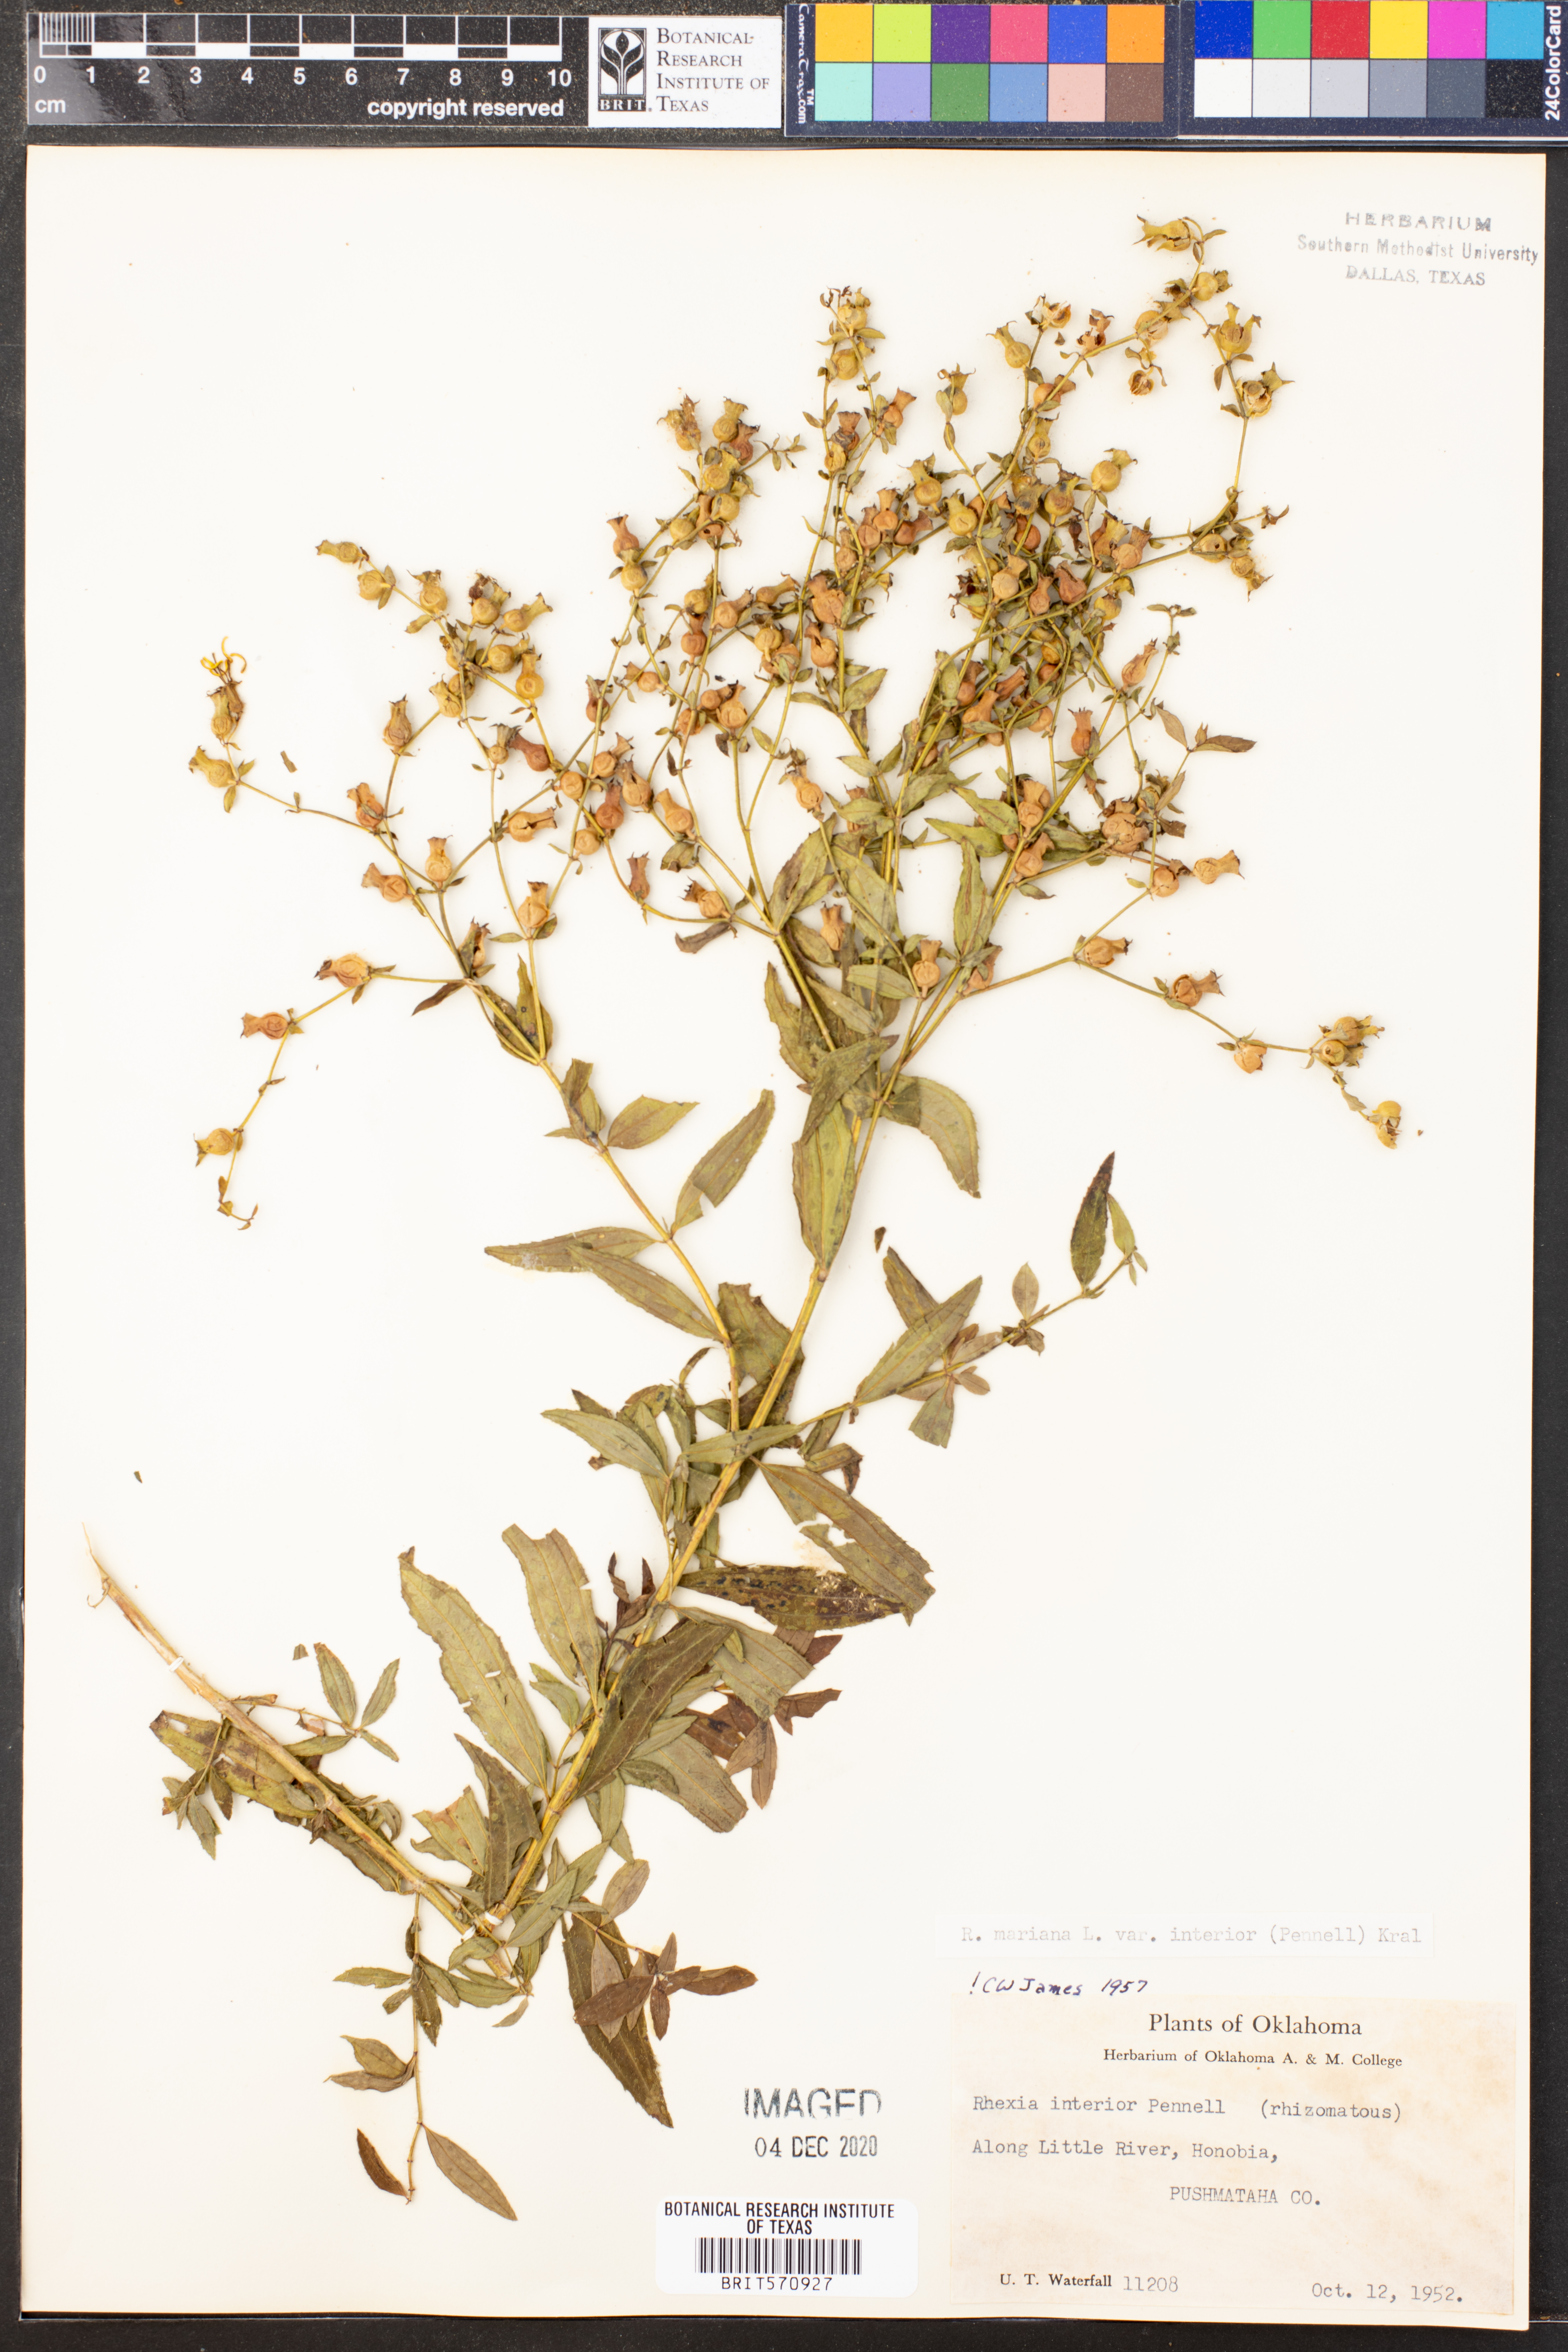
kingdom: Plantae
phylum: Tracheophyta
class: Magnoliopsida
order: Myrtales
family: Melastomataceae
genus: Rhexia
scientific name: Rhexia interior
